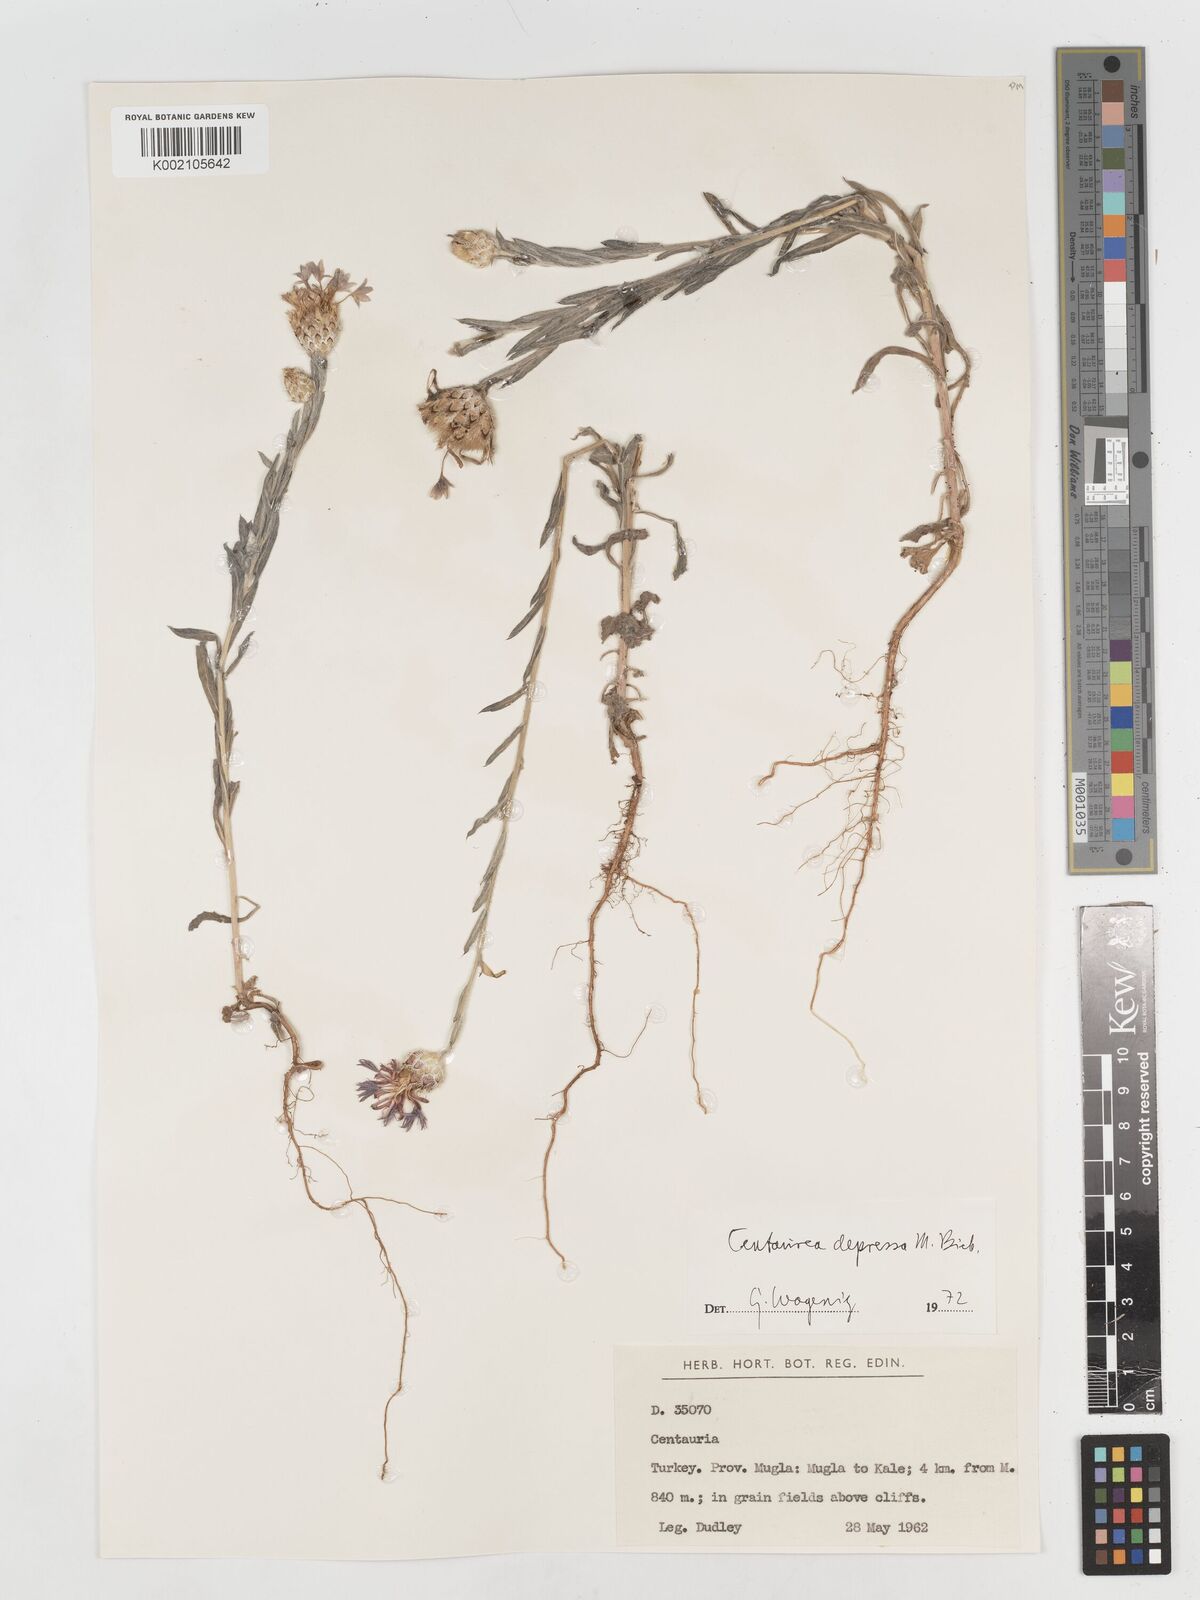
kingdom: Plantae
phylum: Tracheophyta
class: Magnoliopsida
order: Asterales
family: Asteraceae
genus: Centaurea
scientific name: Centaurea depressa
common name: Iranian knapweed
